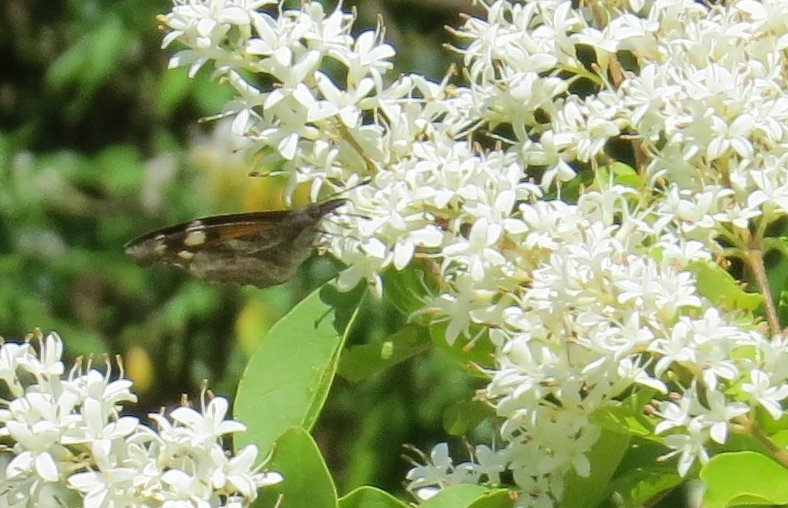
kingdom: Animalia
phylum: Arthropoda
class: Insecta
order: Lepidoptera
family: Nymphalidae
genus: Libytheana
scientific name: Libytheana carinenta
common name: American Snout
